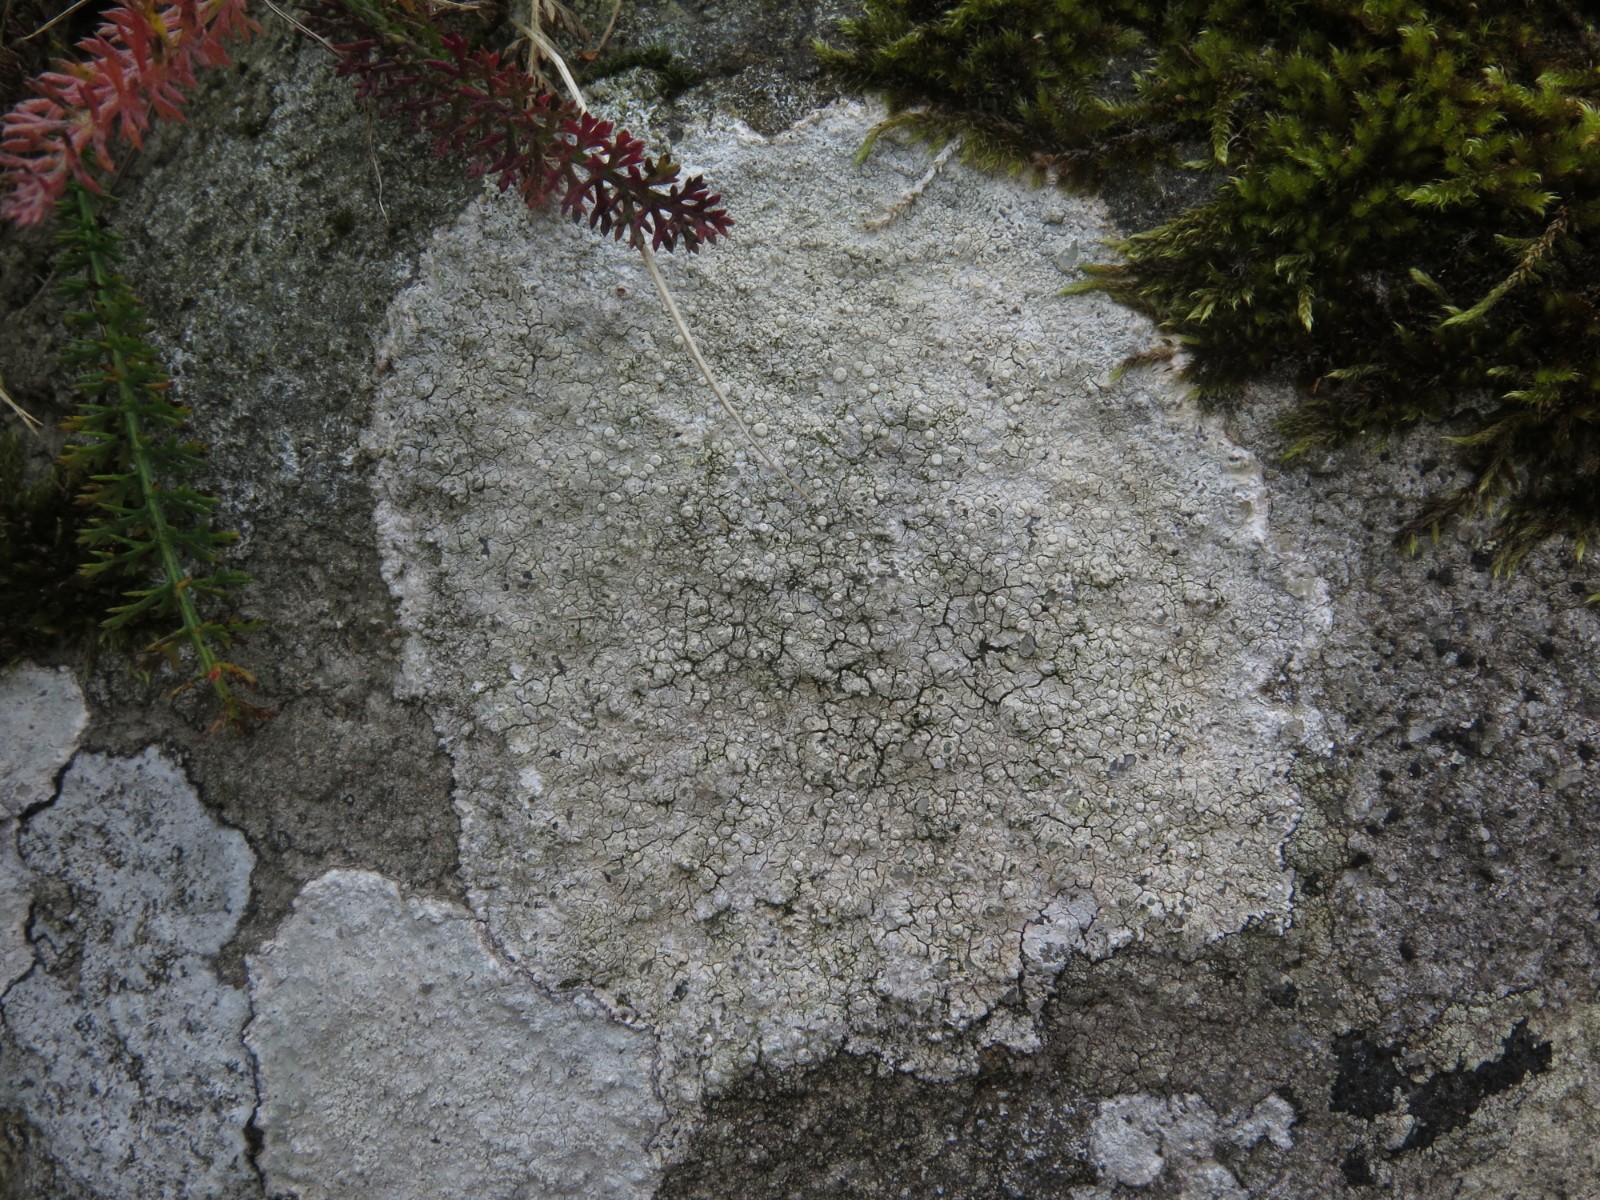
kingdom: Fungi
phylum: Ascomycota
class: Lecanoromycetes
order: Pertusariales
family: Ochrolechiaceae
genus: Ochrolechia
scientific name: Ochrolechia parella
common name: almindelig blegskivelav
